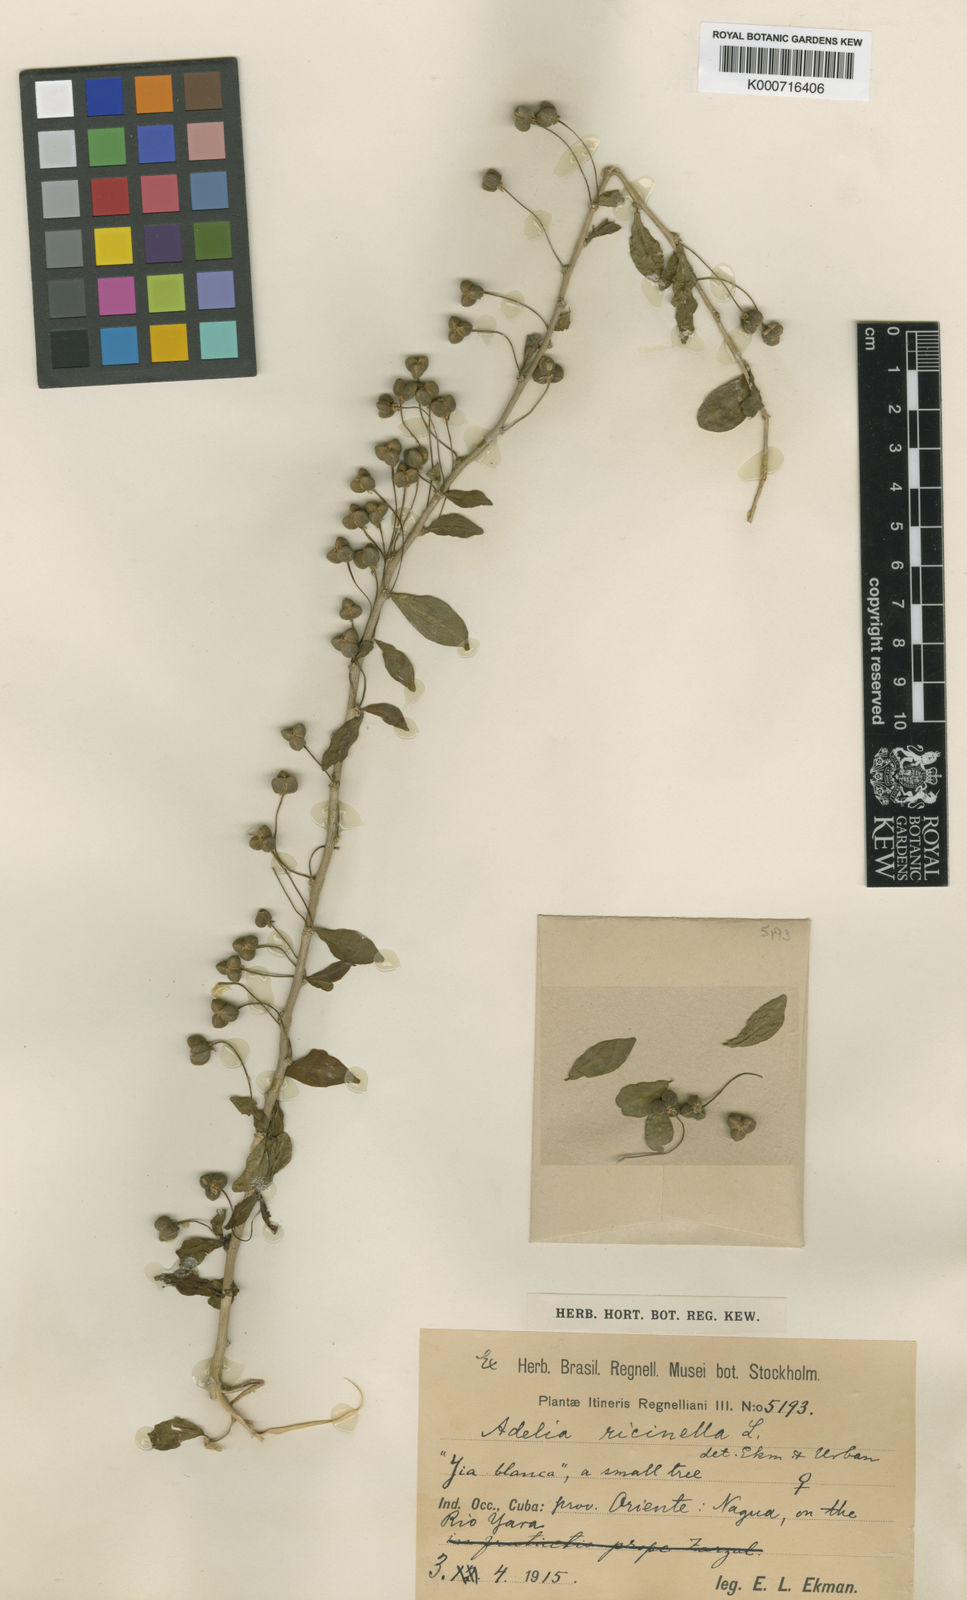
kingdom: Plantae
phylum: Tracheophyta
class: Magnoliopsida
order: Malpighiales
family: Euphorbiaceae
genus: Adelia
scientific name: Adelia ricinella
